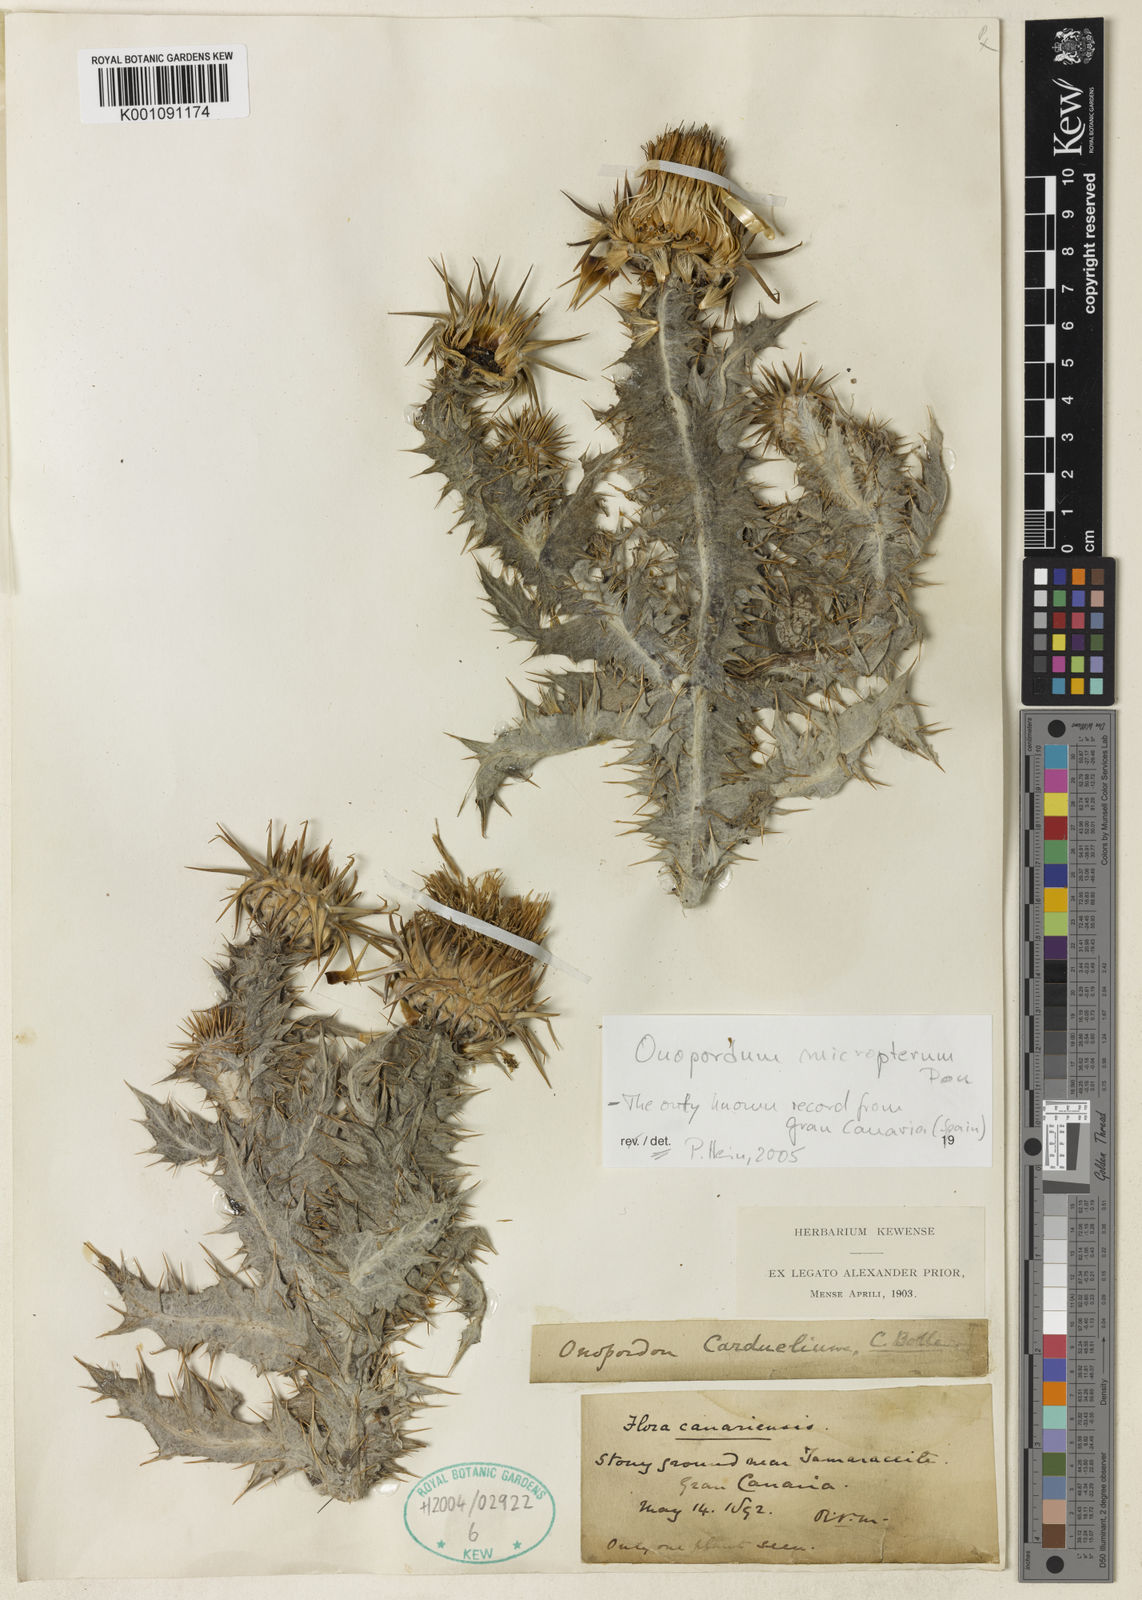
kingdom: Plantae
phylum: Tracheophyta
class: Magnoliopsida
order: Asterales
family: Asteraceae
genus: Onopordum
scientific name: Onopordum macracanthum
